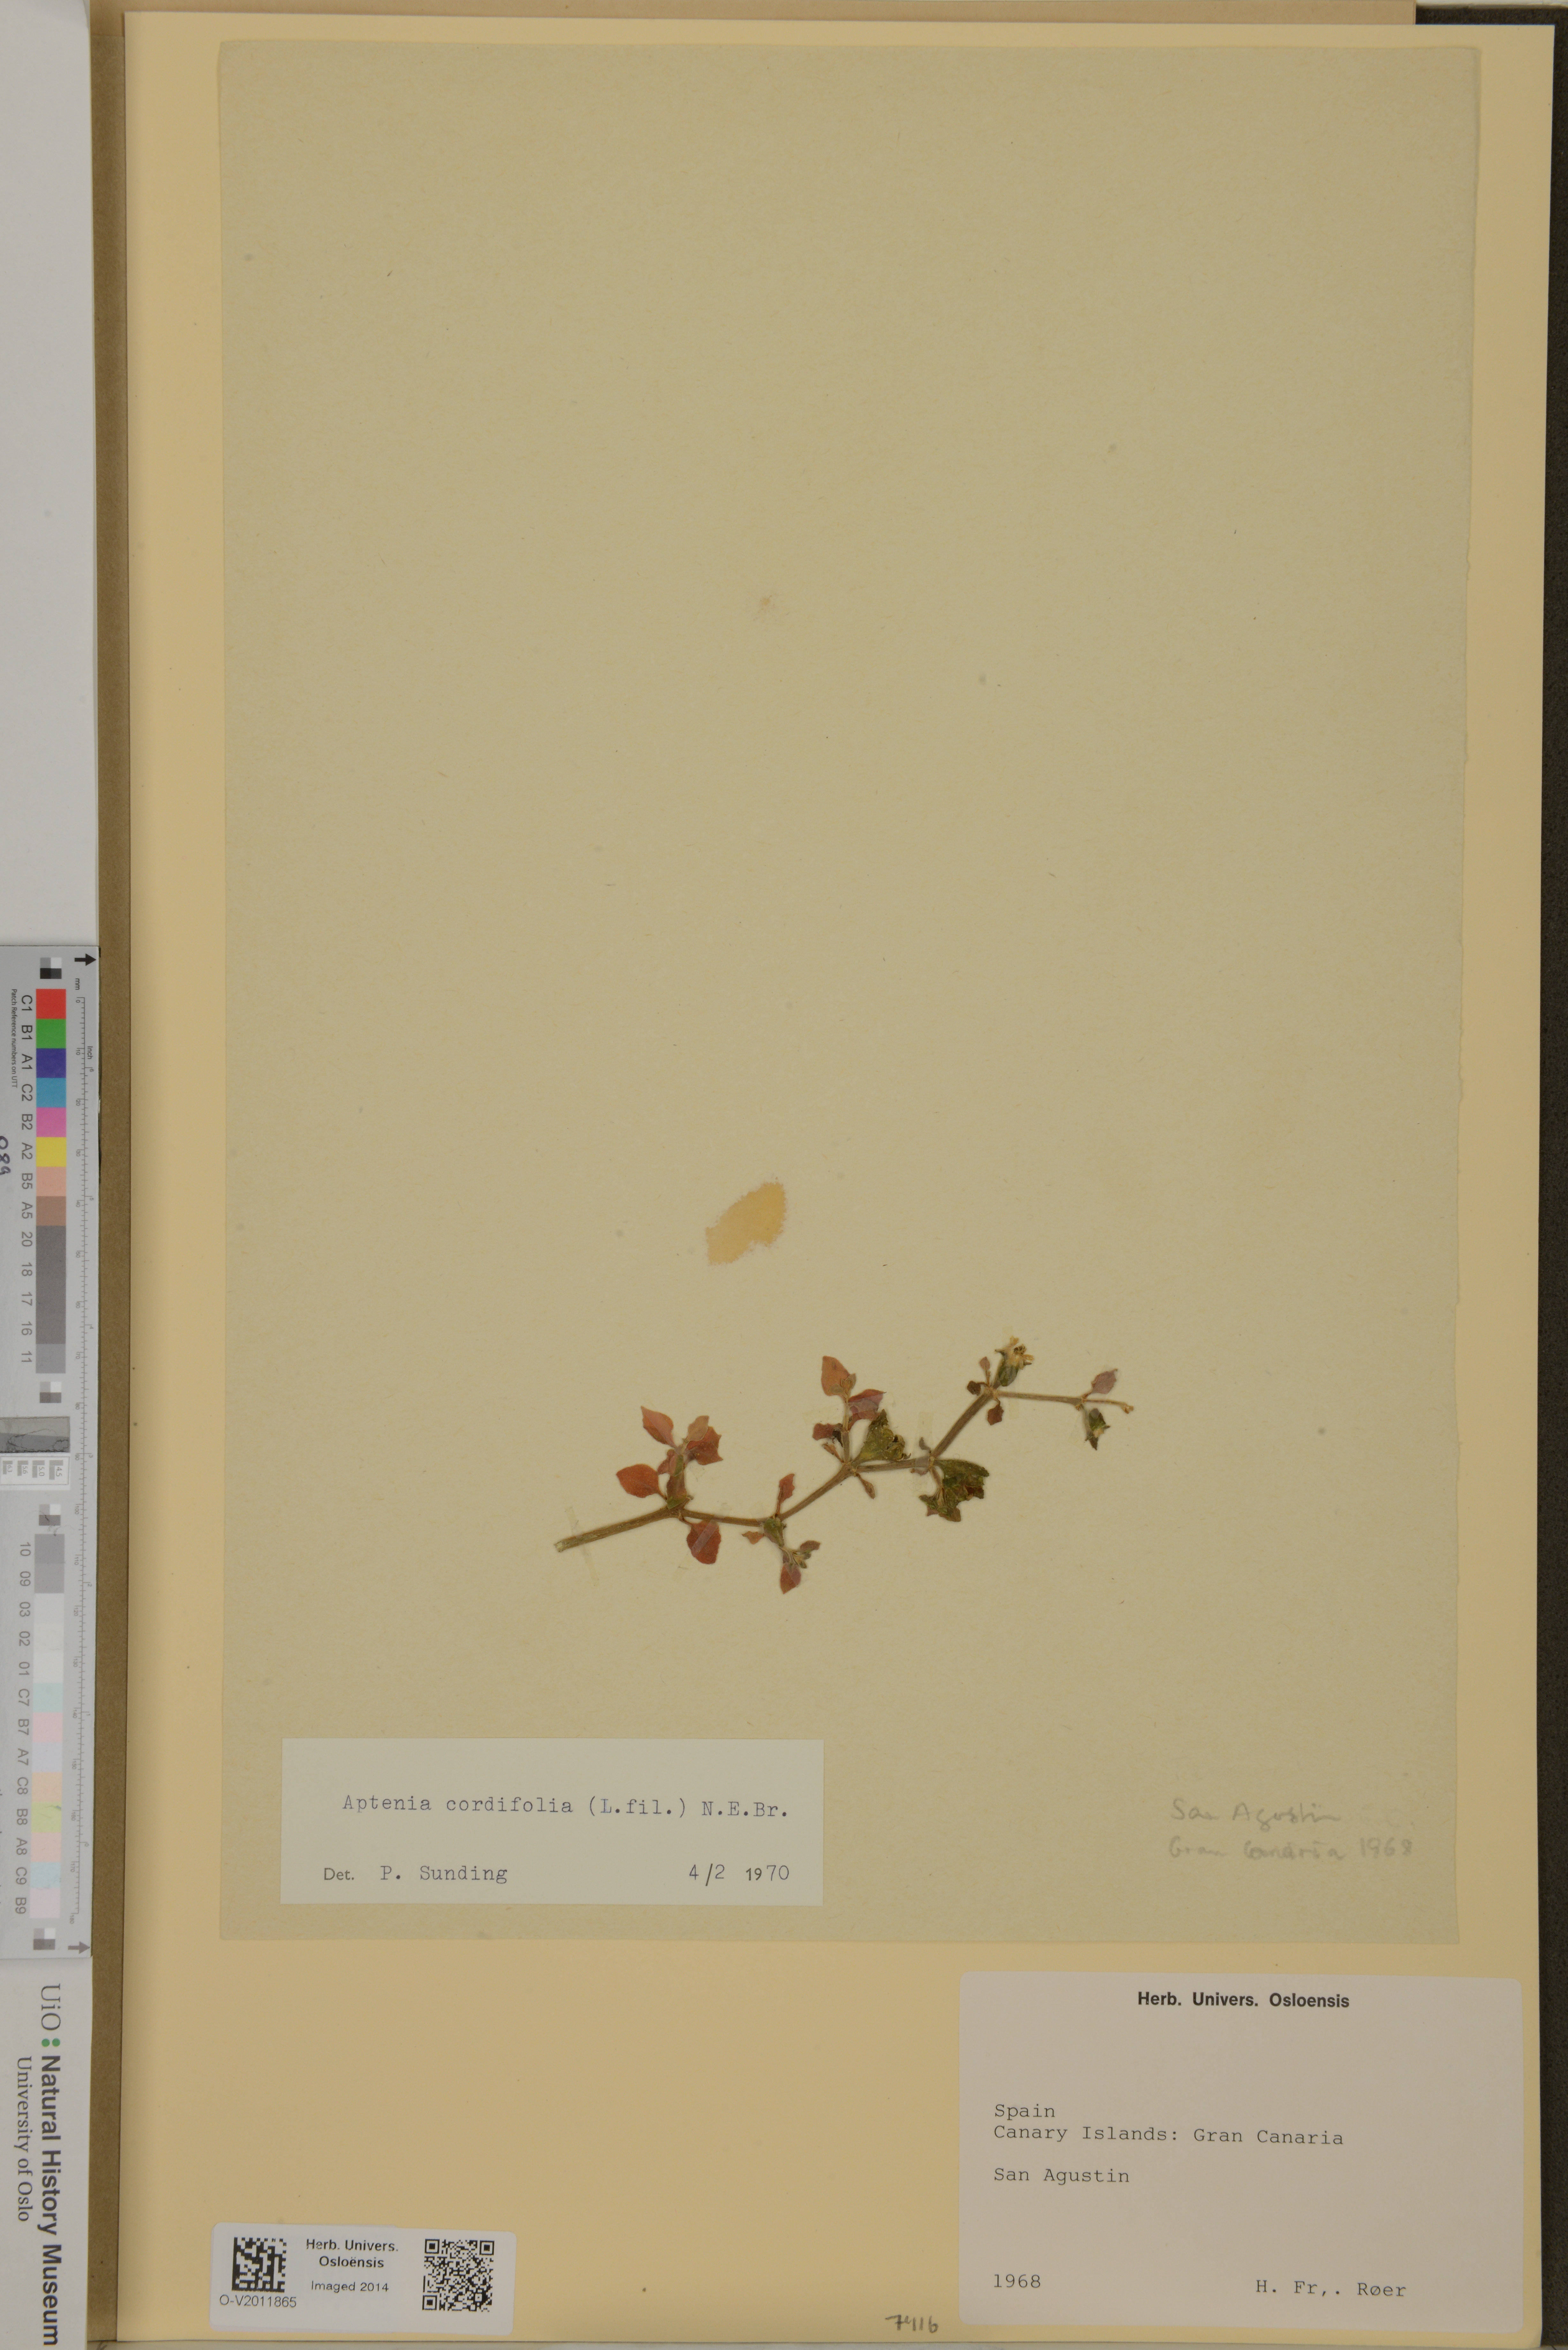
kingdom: Plantae
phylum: Tracheophyta
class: Magnoliopsida
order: Caryophyllales
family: Aizoaceae
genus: Mesembryanthemum
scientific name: Mesembryanthemum cordifolium
